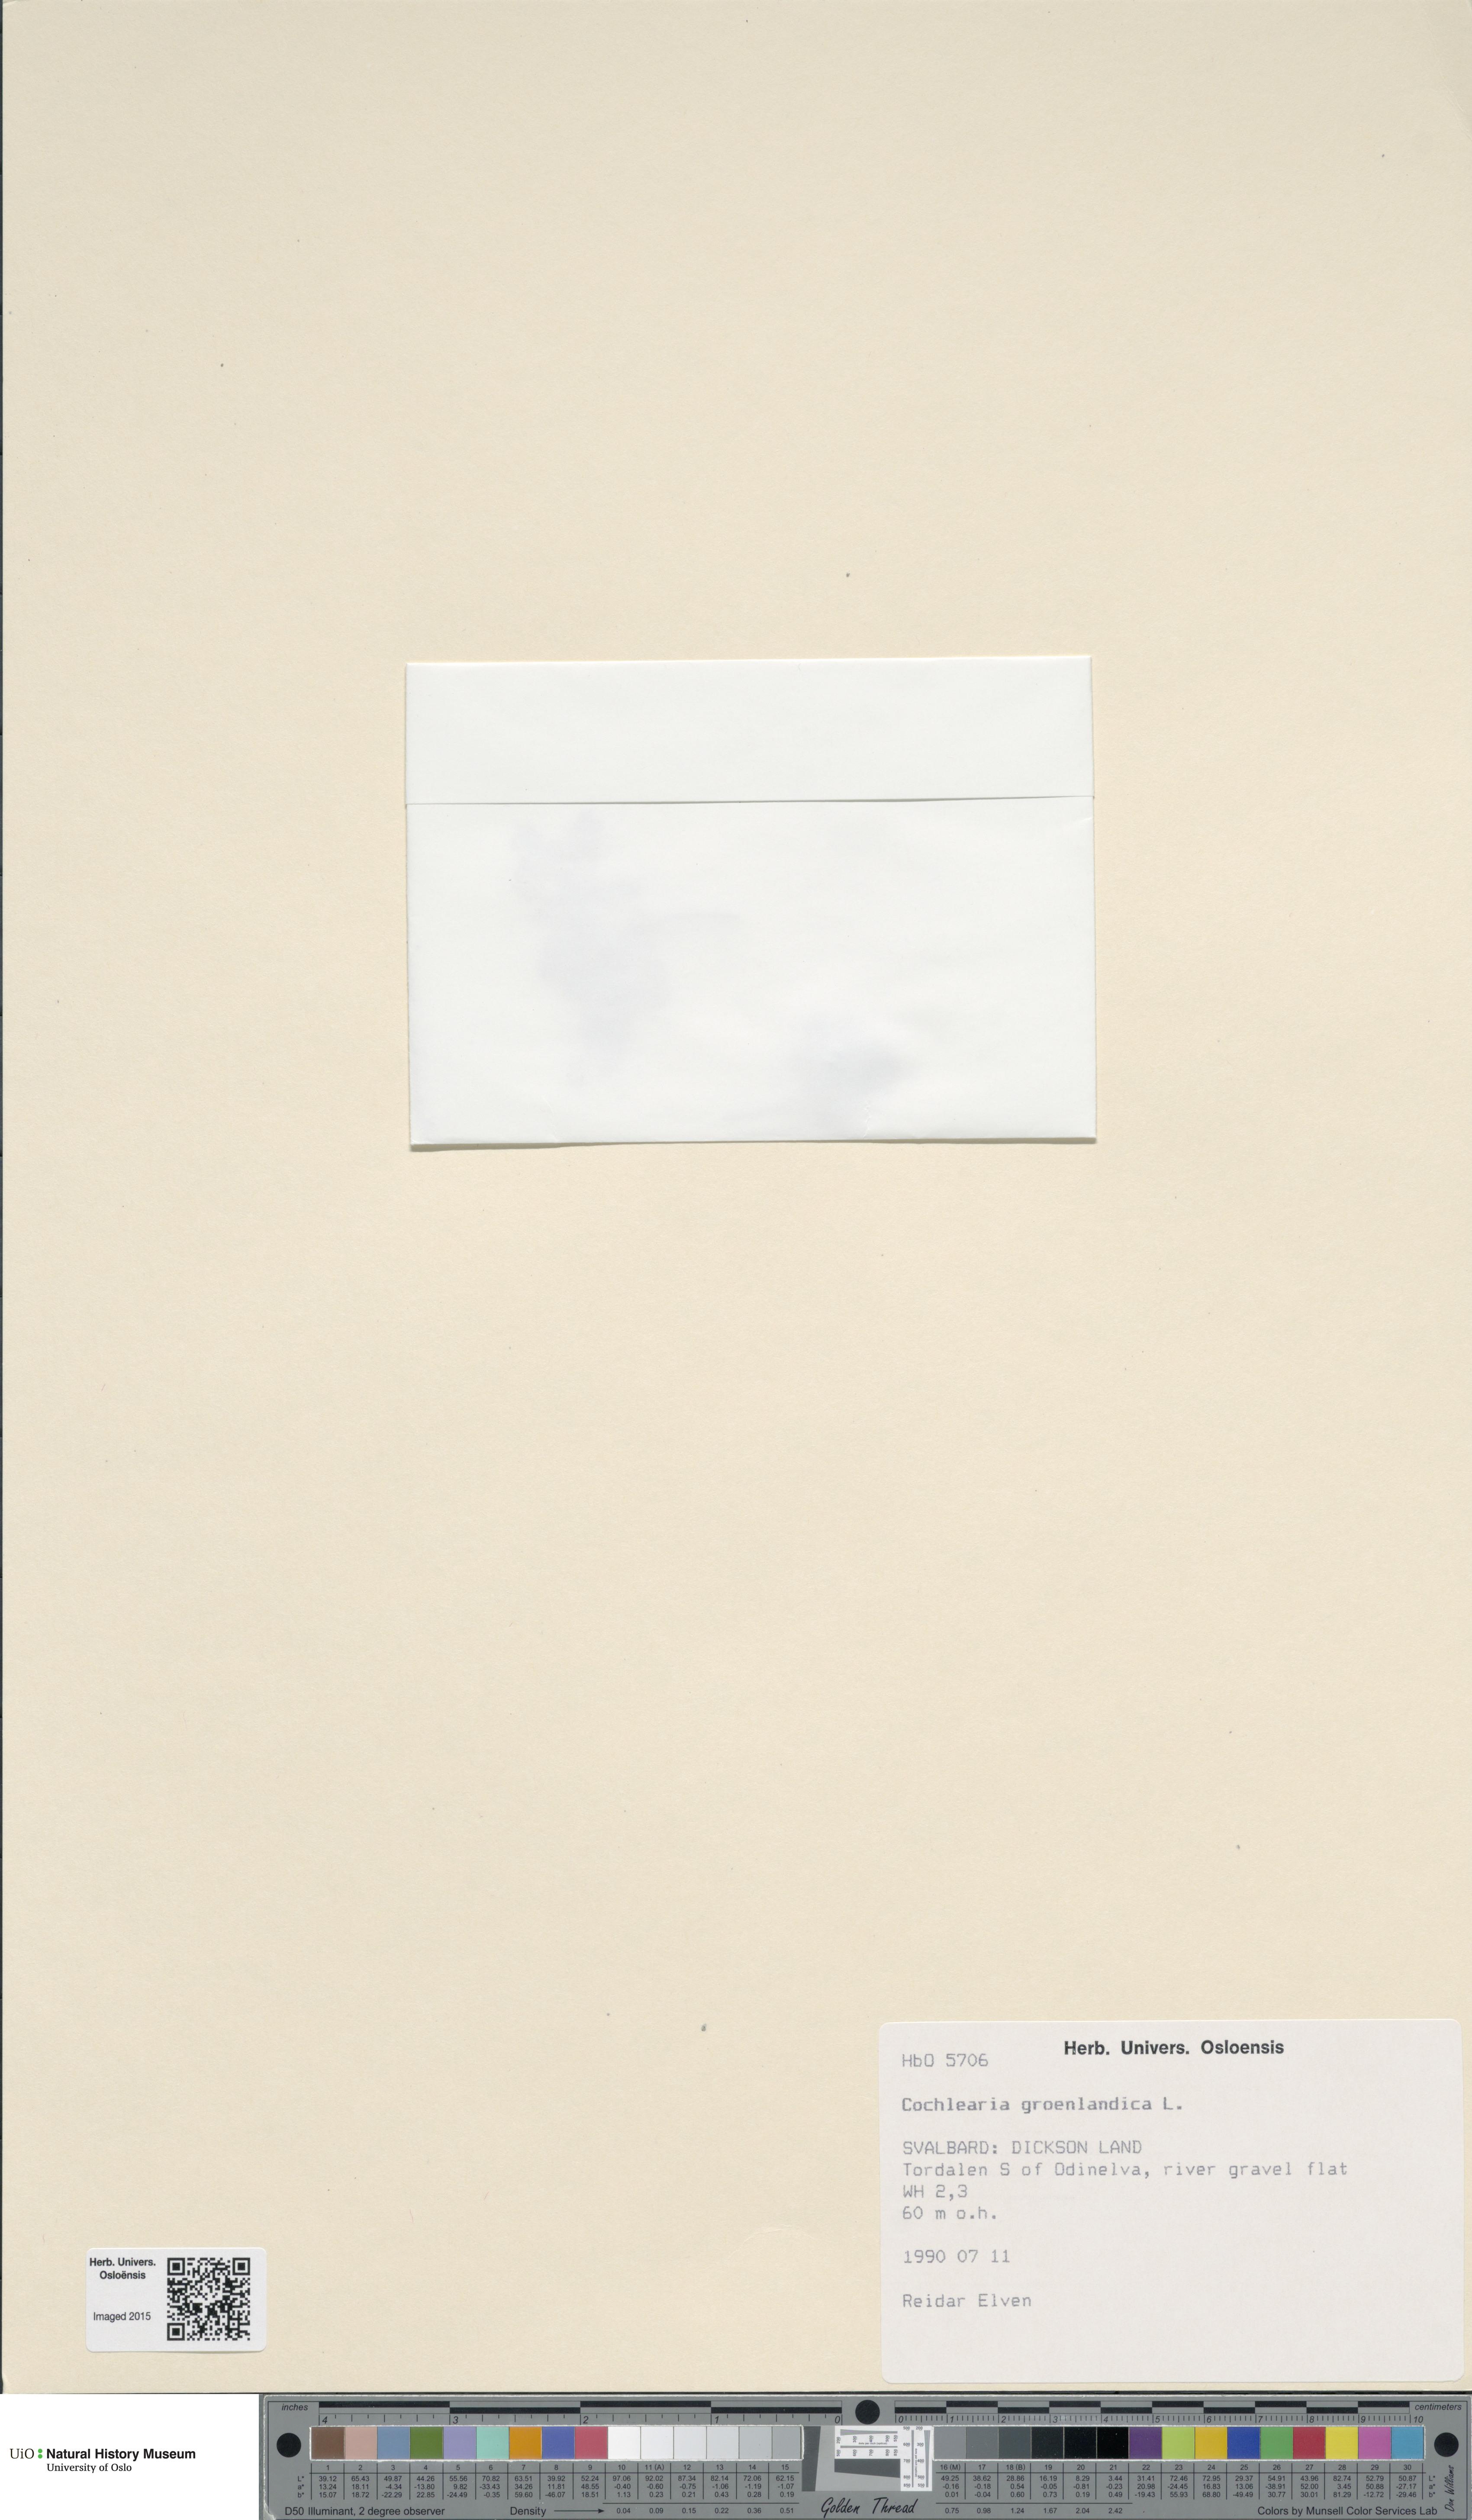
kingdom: Plantae
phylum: Tracheophyta
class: Magnoliopsida
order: Brassicales
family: Brassicaceae
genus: Cochlearia
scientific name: Cochlearia groenlandica
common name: Danish scurvygrass
